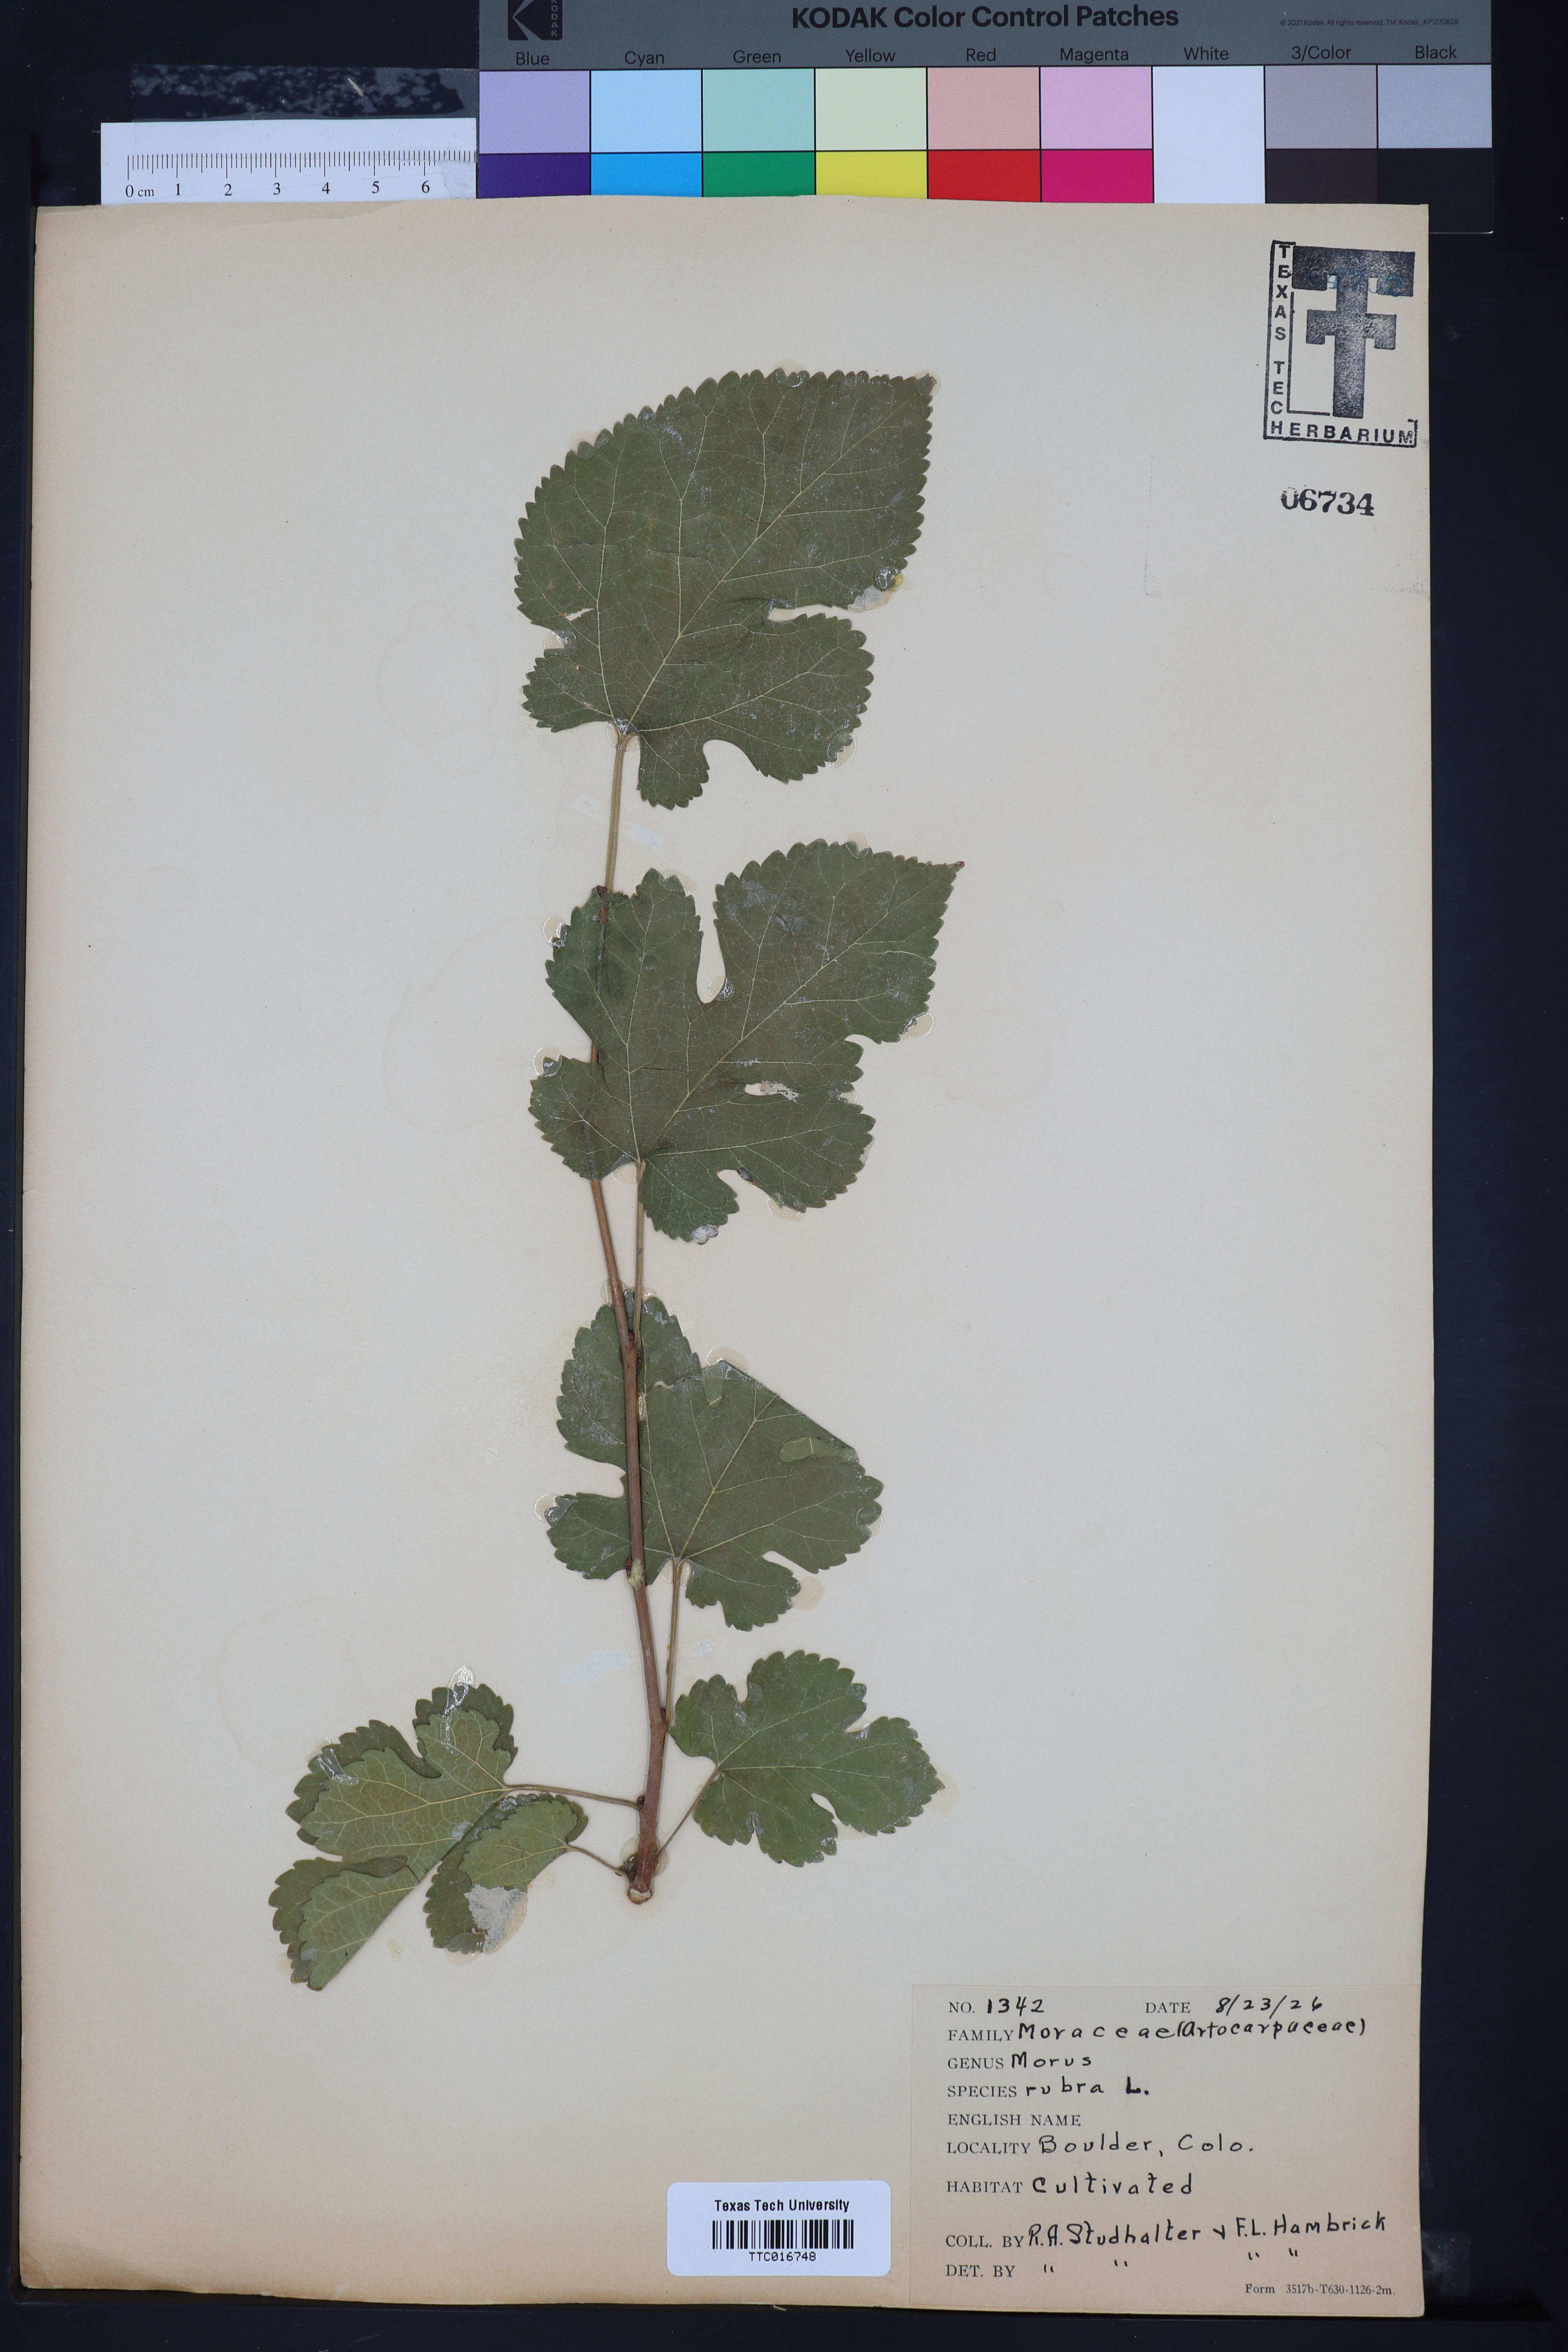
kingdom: Plantae
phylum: Tracheophyta
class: Magnoliopsida
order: Rosales
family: Moraceae
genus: Morus
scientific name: Morus
